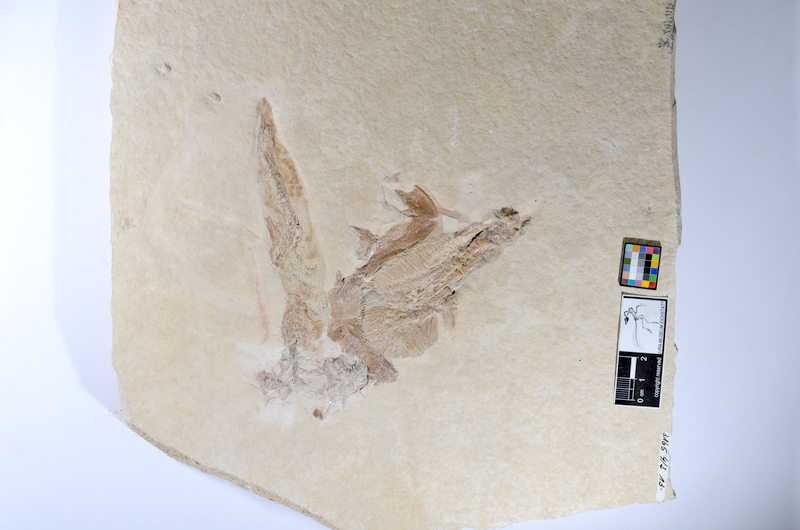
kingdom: Animalia
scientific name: Animalia
